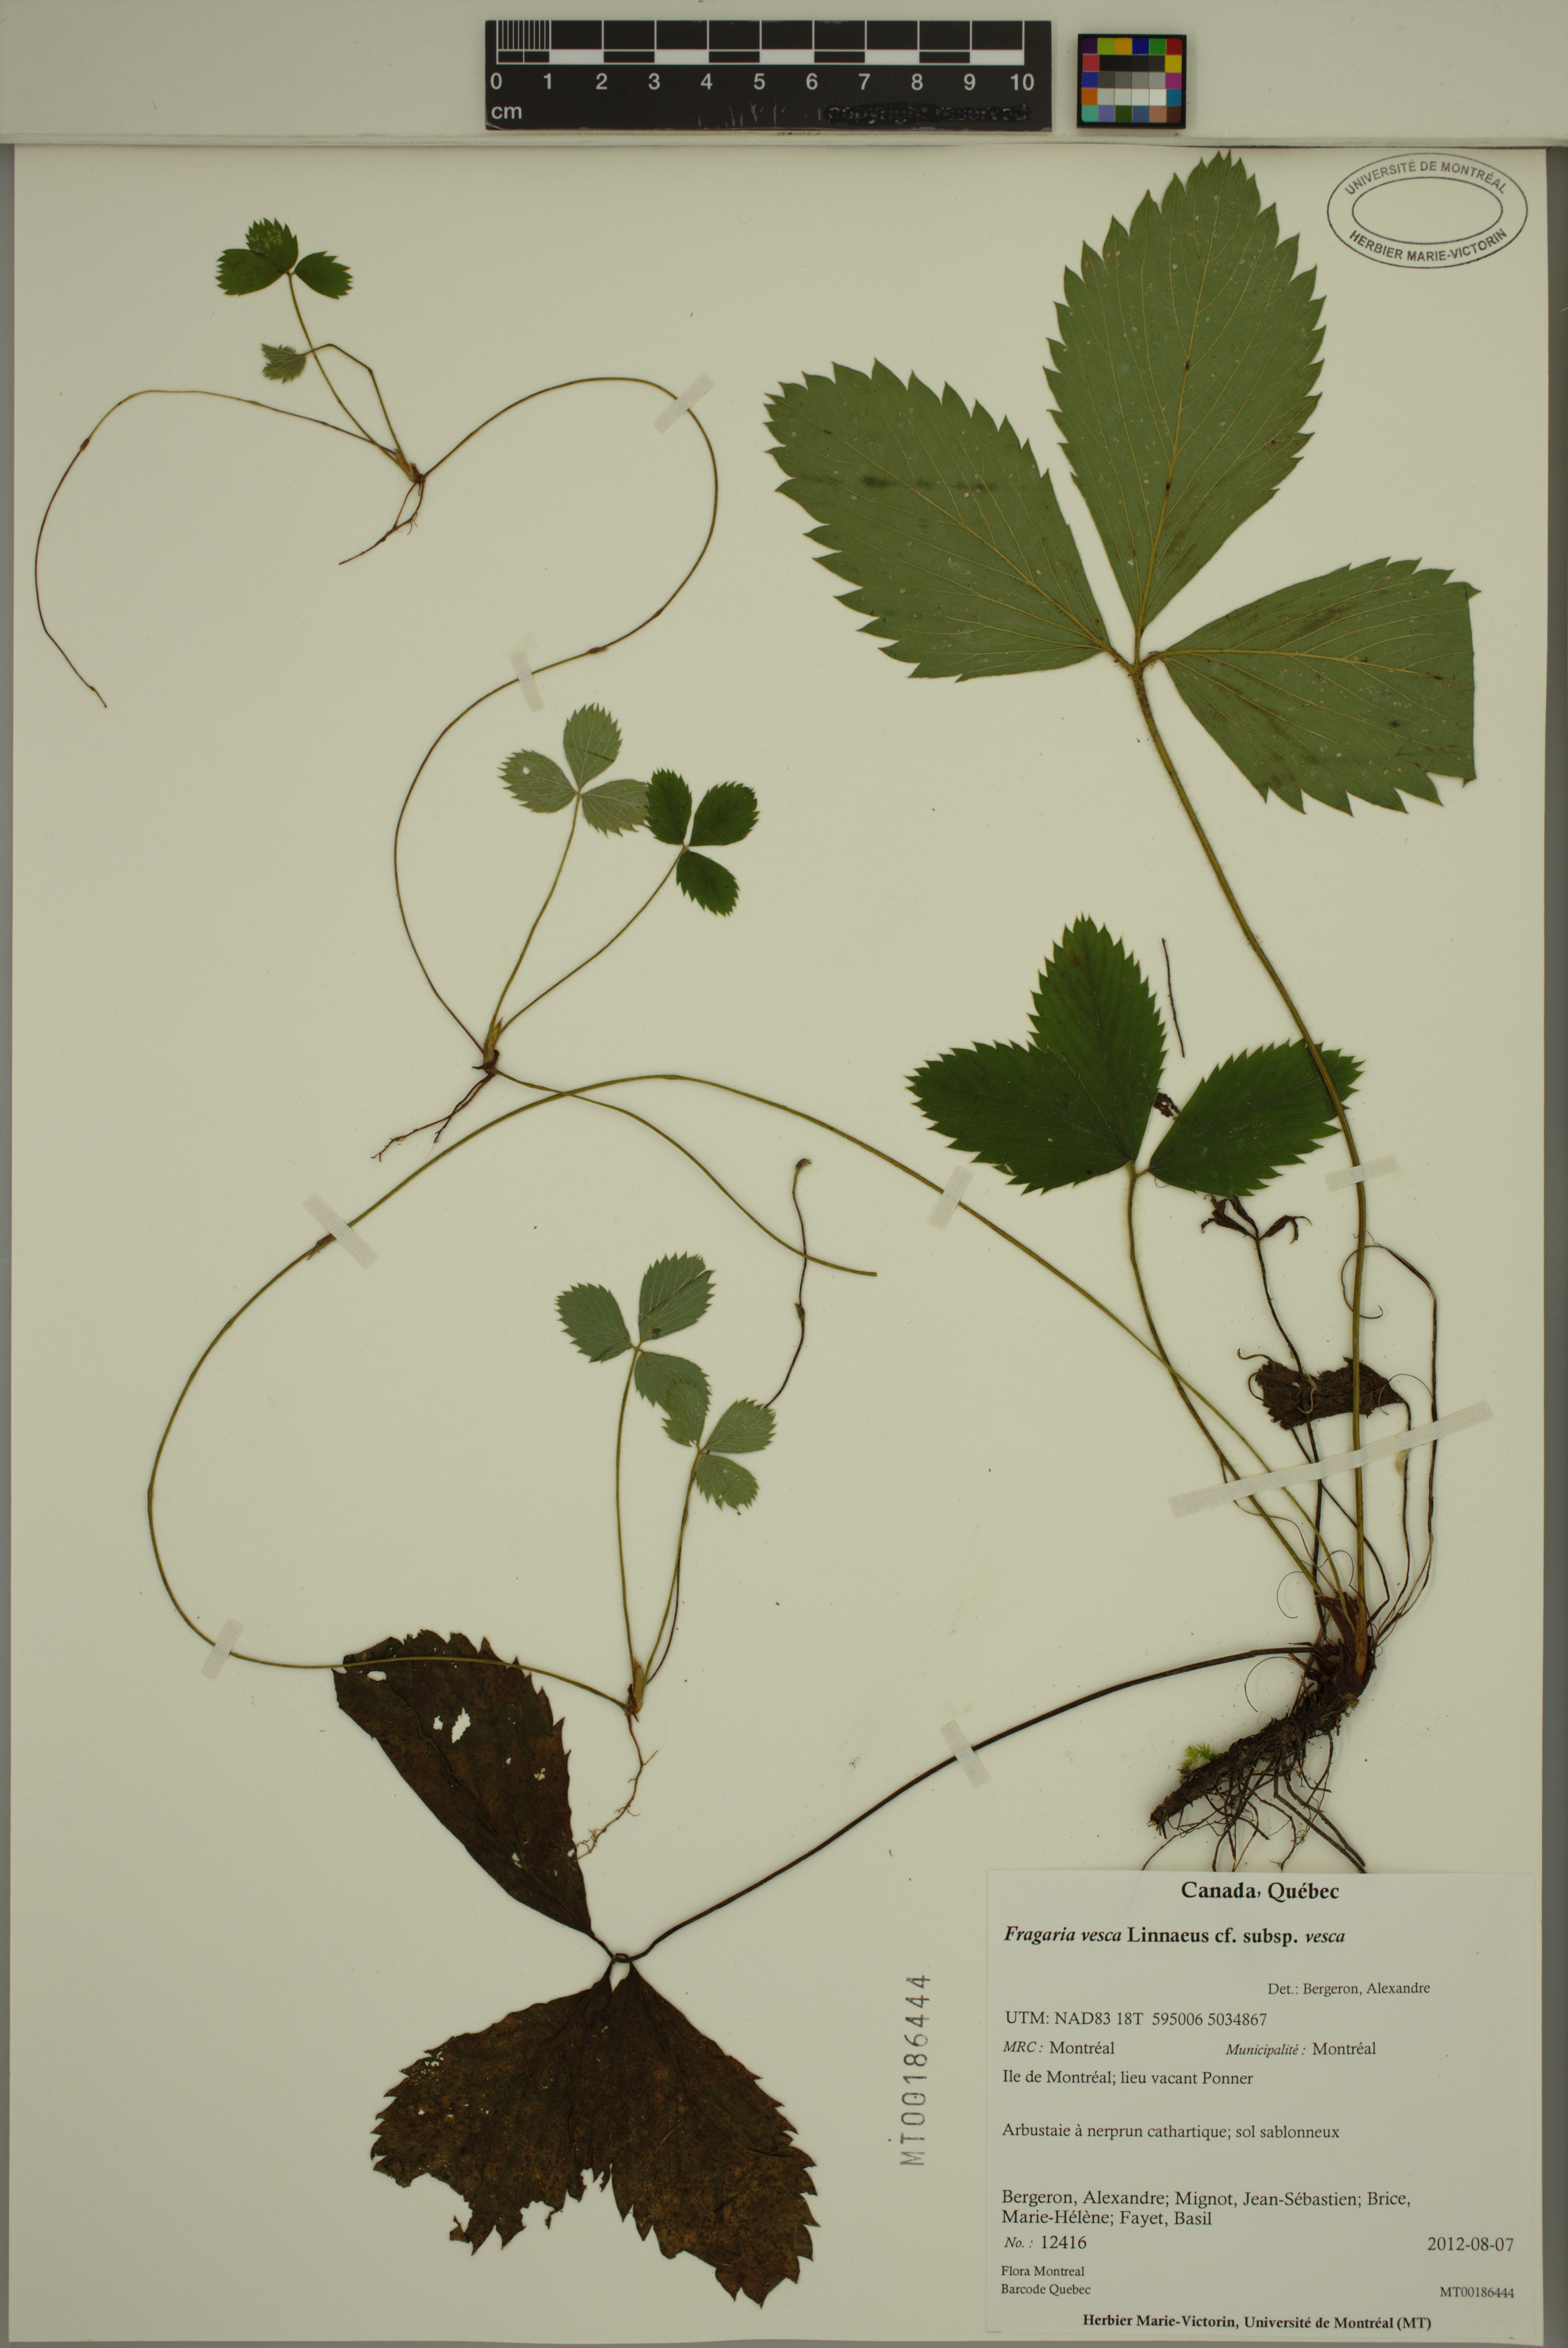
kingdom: Plantae
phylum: Tracheophyta
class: Magnoliopsida
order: Rosales
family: Rosaceae
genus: Fragaria
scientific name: Fragaria vesca
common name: Wild strawberry
